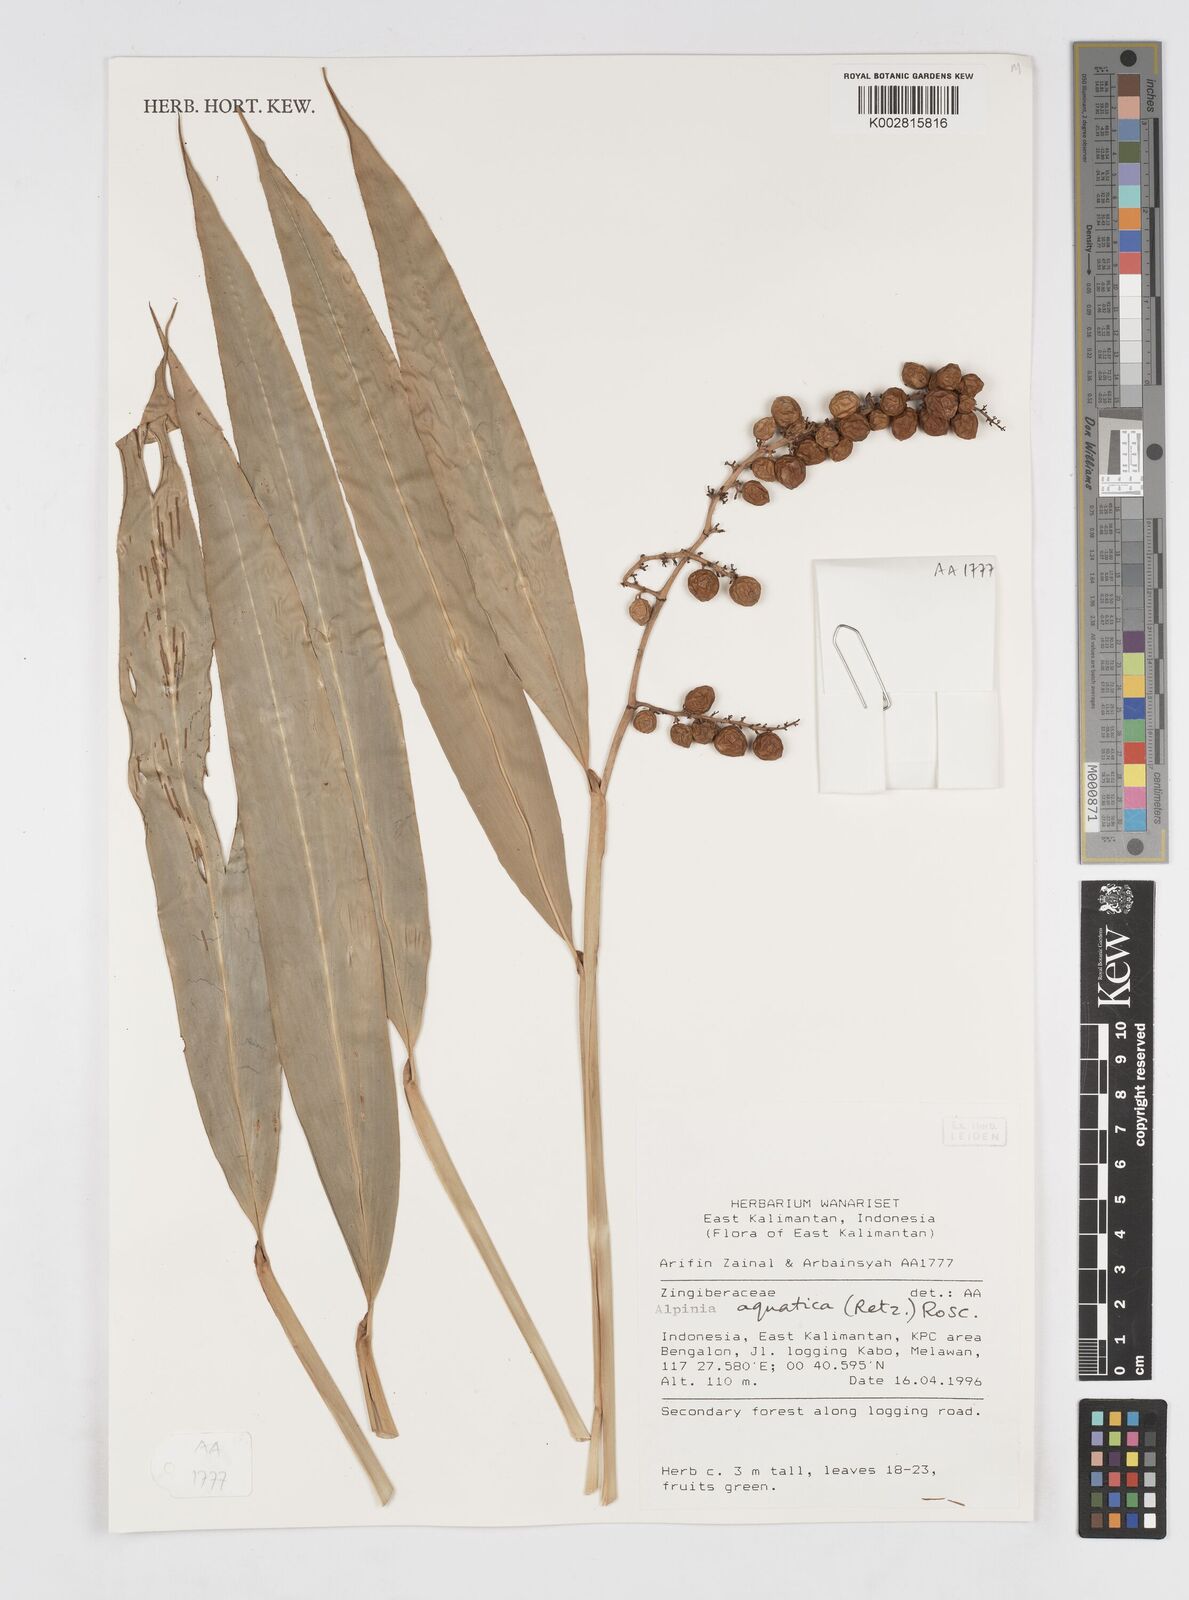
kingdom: Plantae
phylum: Tracheophyta
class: Liliopsida
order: Zingiberales
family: Zingiberaceae
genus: Alpinia
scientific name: Alpinia aquatica
